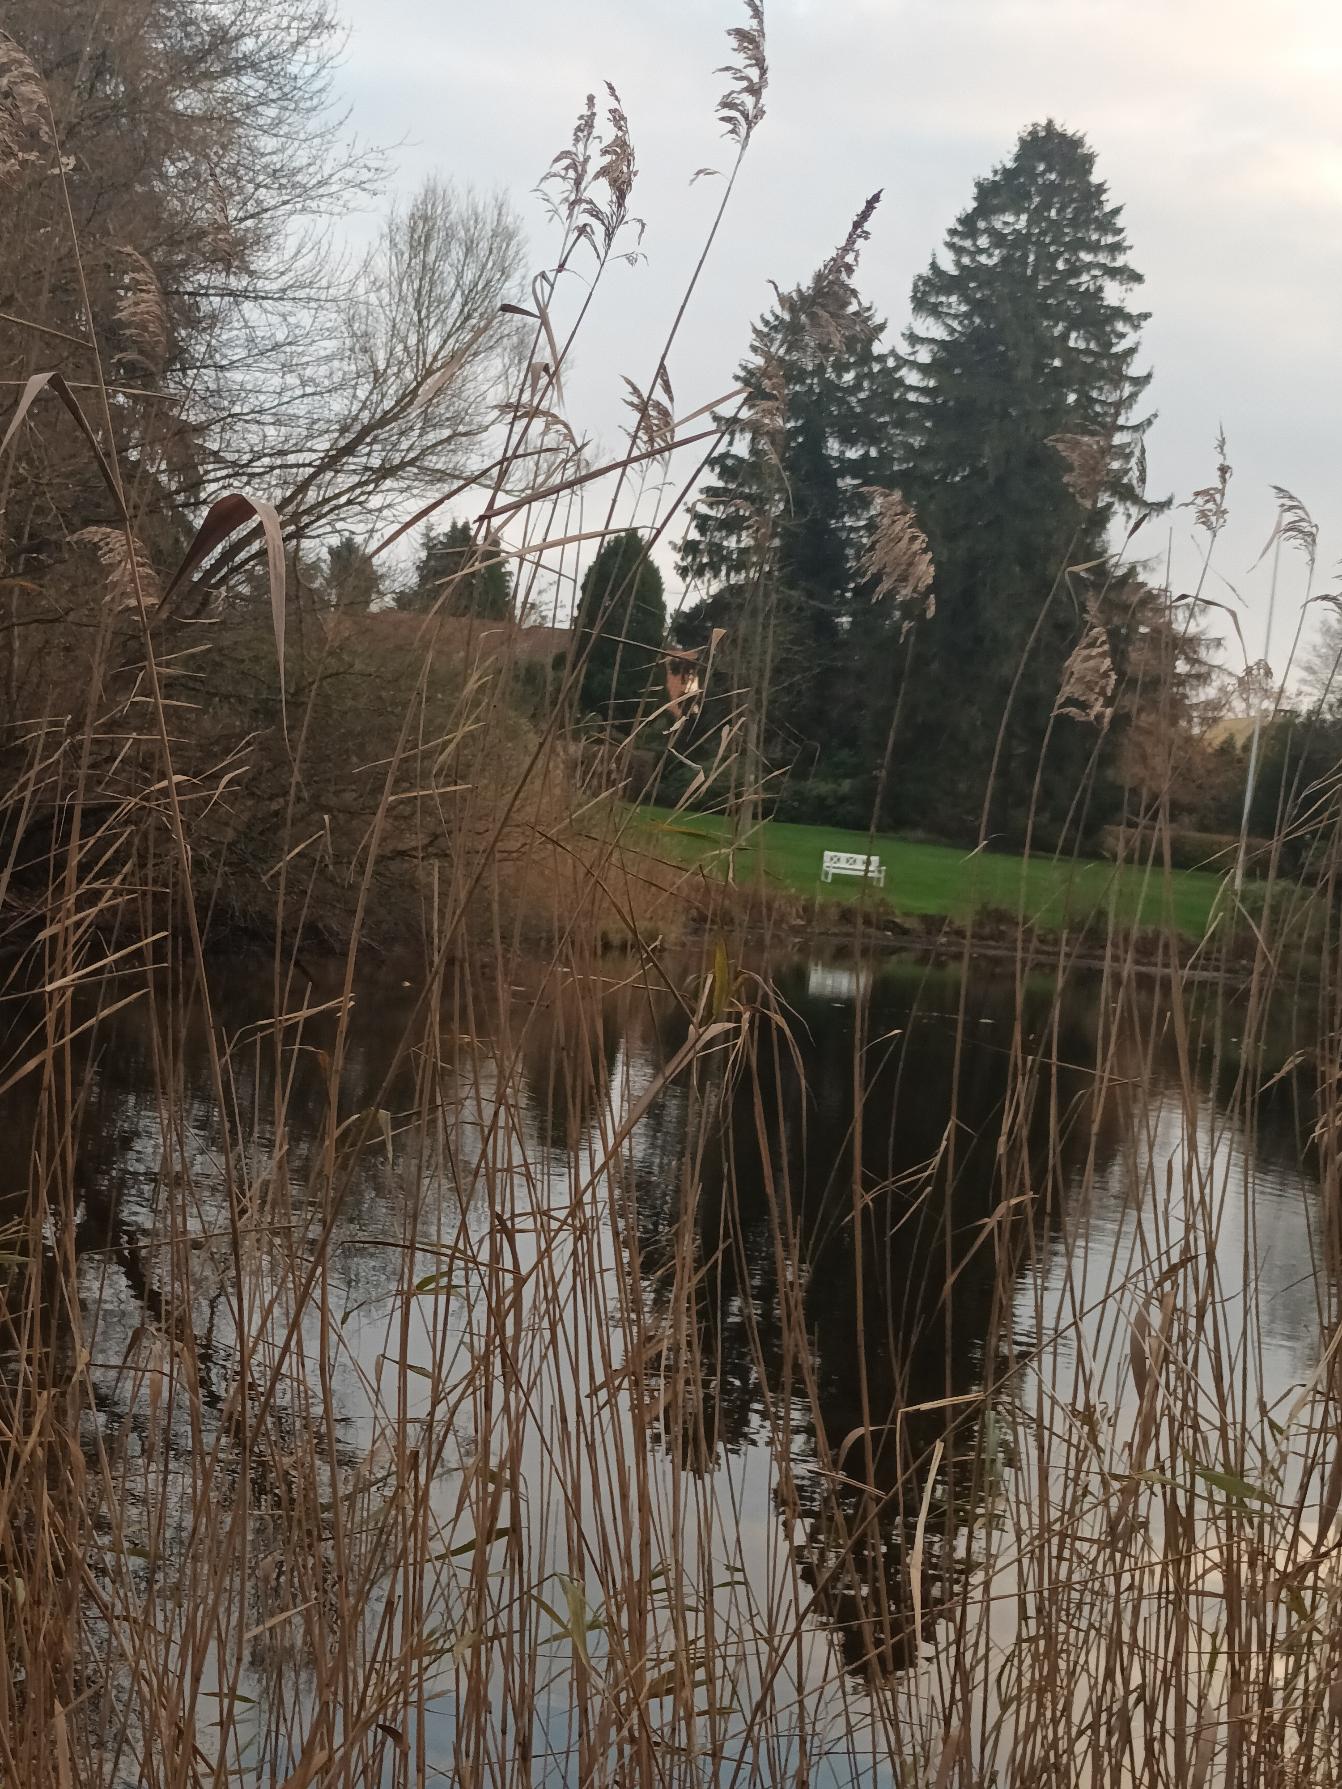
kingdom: Plantae
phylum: Tracheophyta
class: Liliopsida
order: Poales
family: Poaceae
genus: Phragmites
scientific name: Phragmites australis
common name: Tagrør
